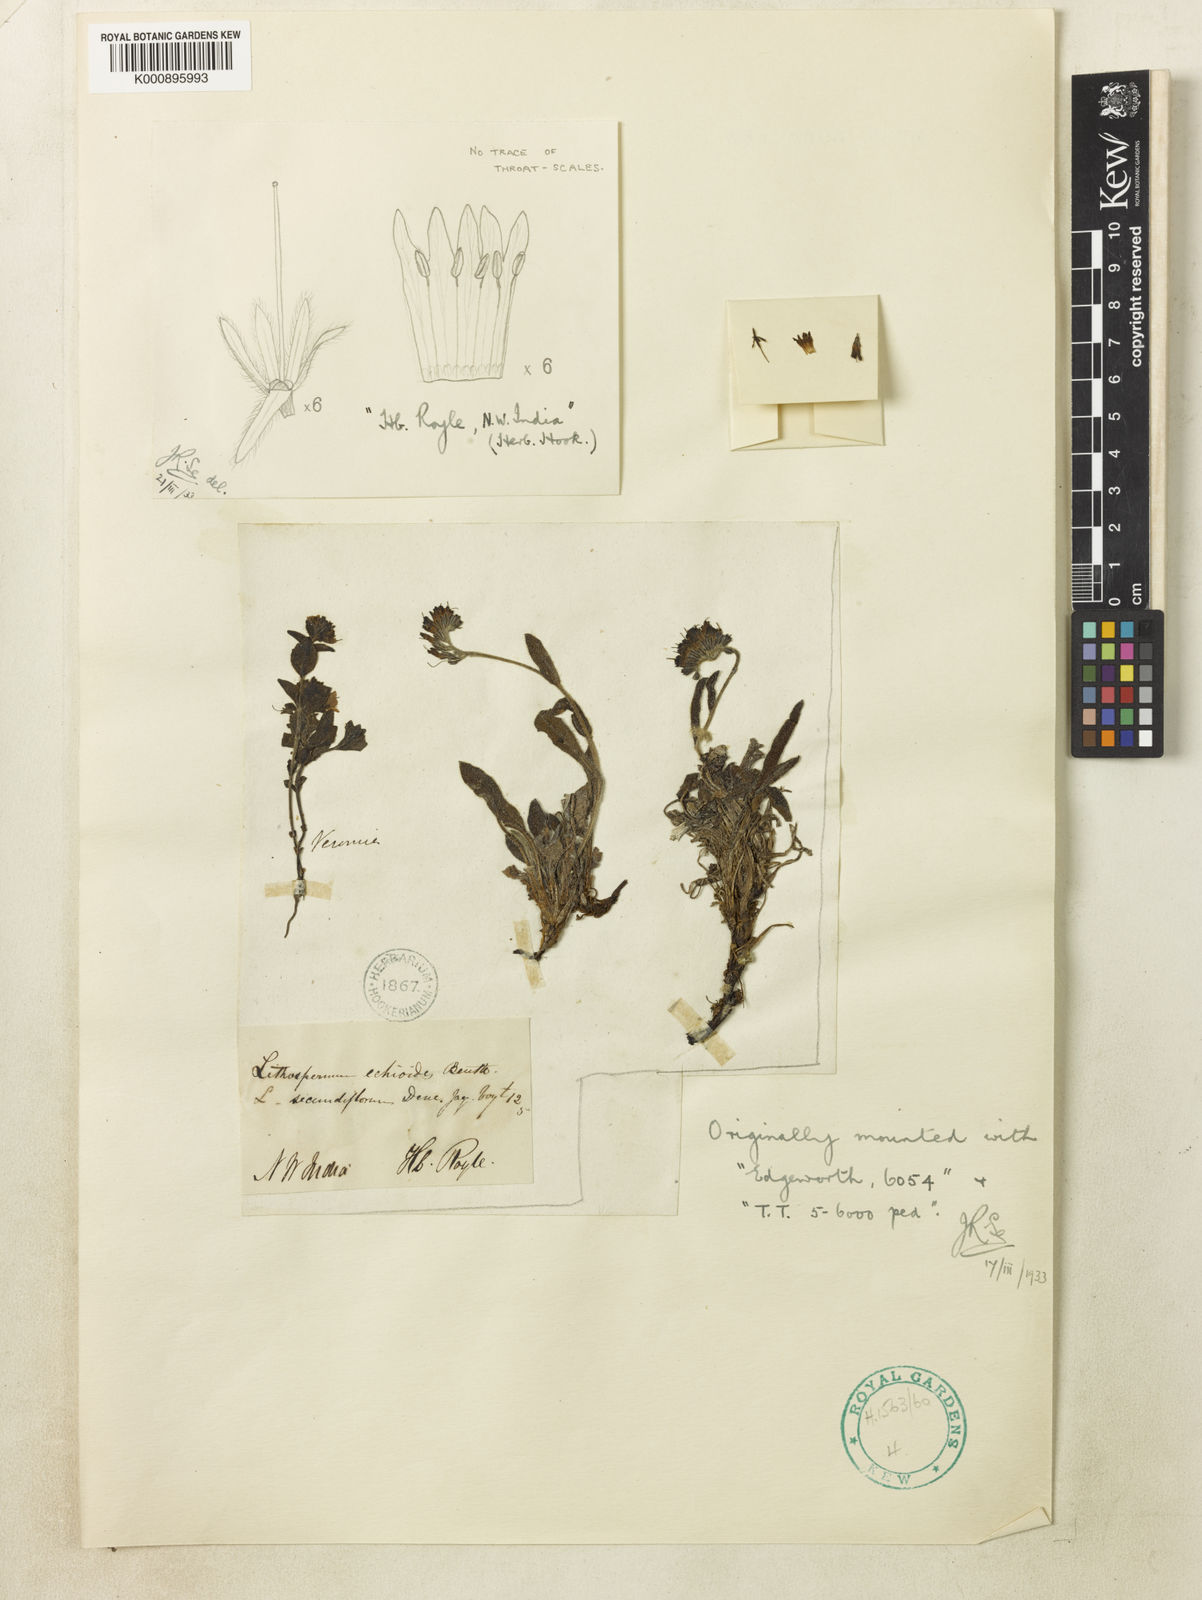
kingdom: Plantae
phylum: Tracheophyta
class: Magnoliopsida
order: Boraginales
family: Boraginaceae
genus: Decalepidanthus
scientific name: Decalepidanthus echioides
